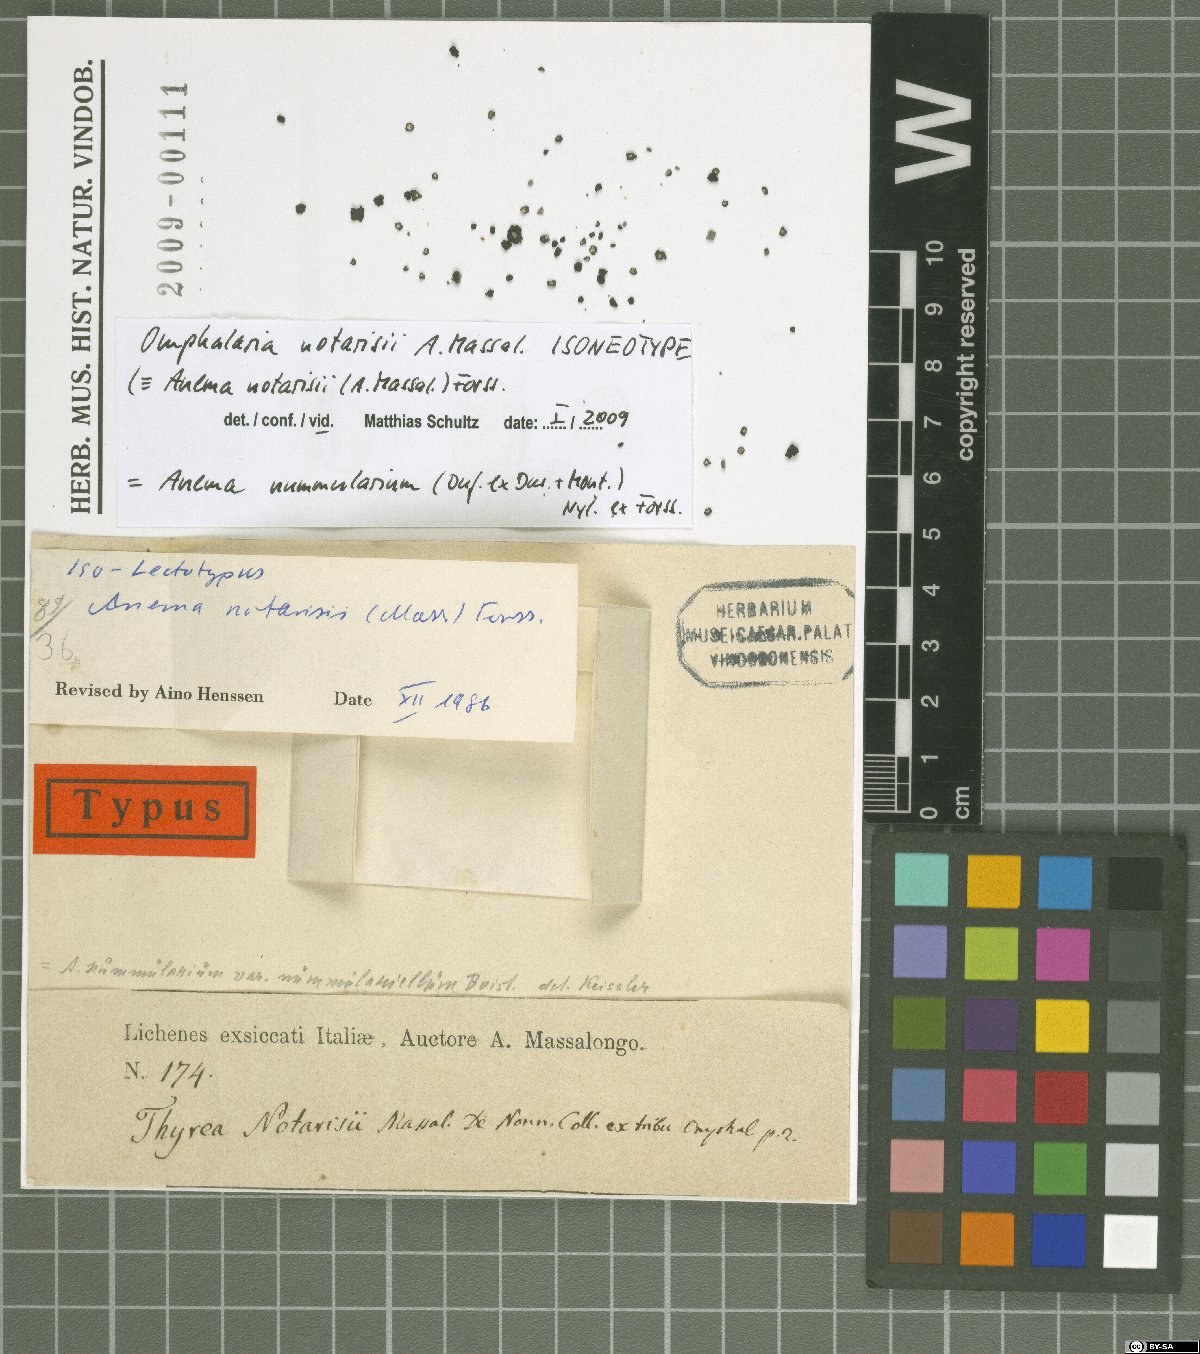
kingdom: Fungi
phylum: Ascomycota
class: Lichinomycetes
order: Lichinales
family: Lichinaceae
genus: Anema
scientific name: Anema nummularium
